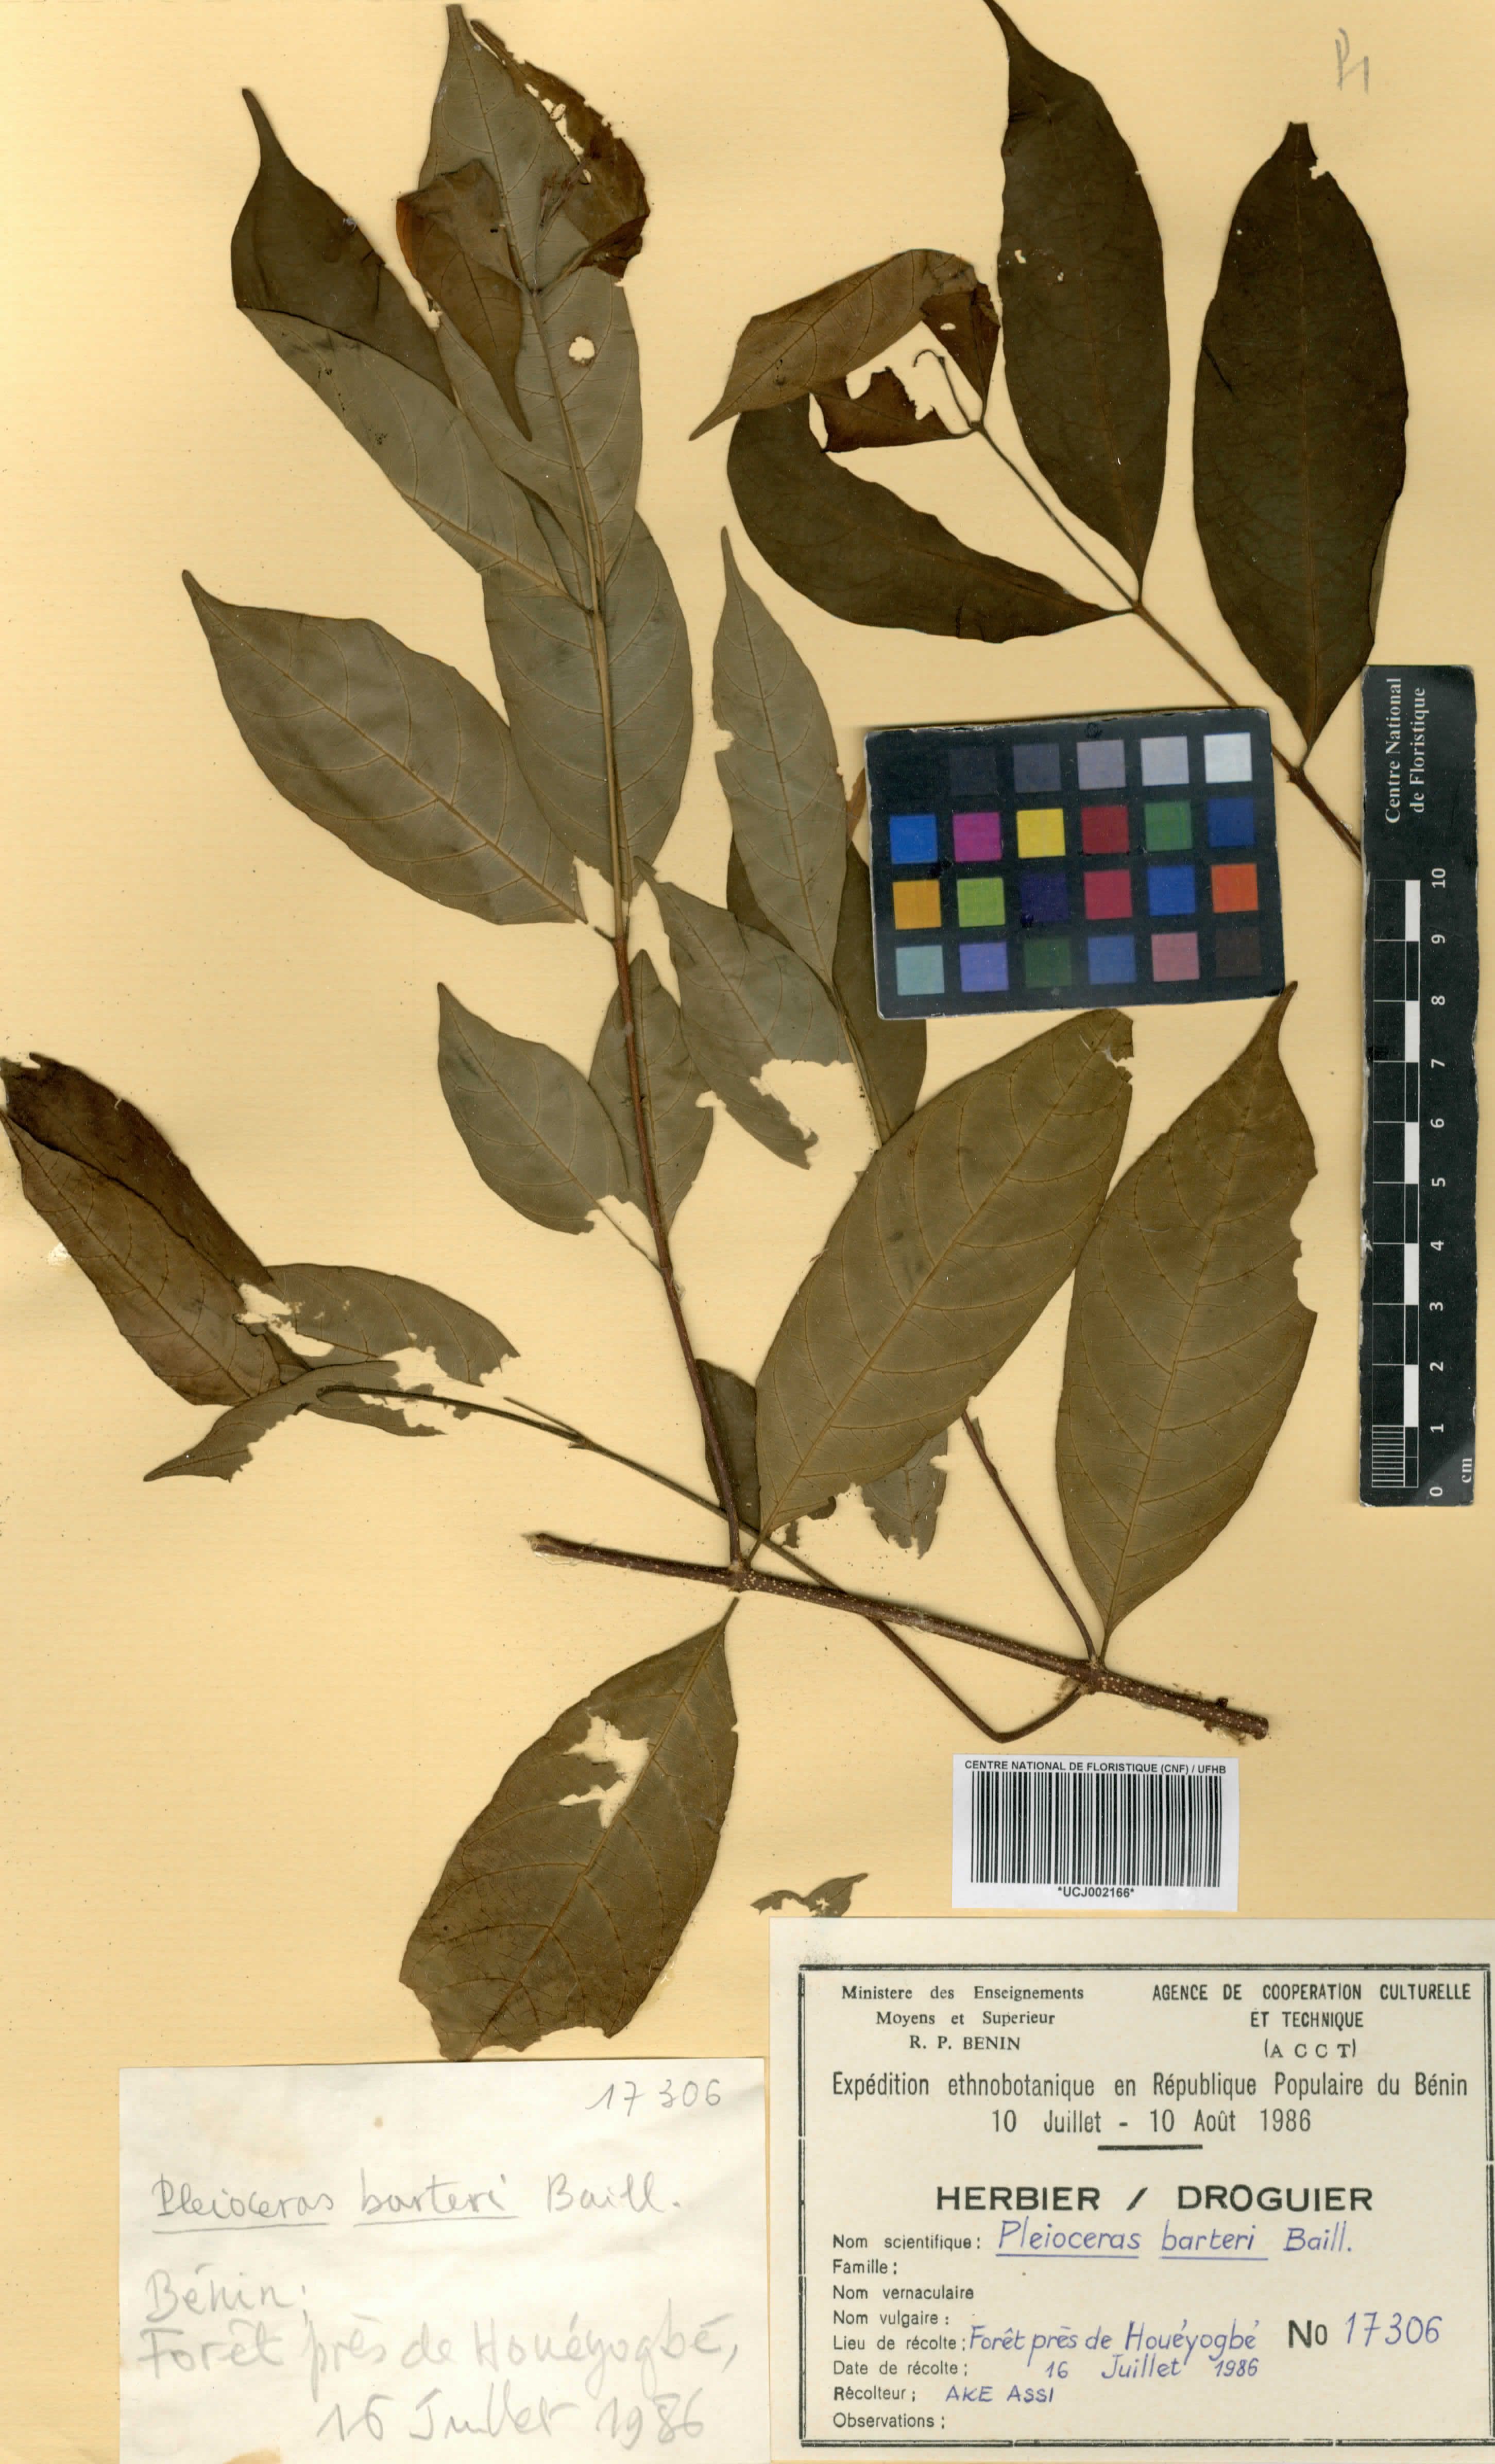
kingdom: Plantae
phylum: Tracheophyta
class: Magnoliopsida
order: Gentianales
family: Apocynaceae
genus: Pleioceras
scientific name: Pleioceras barteri
